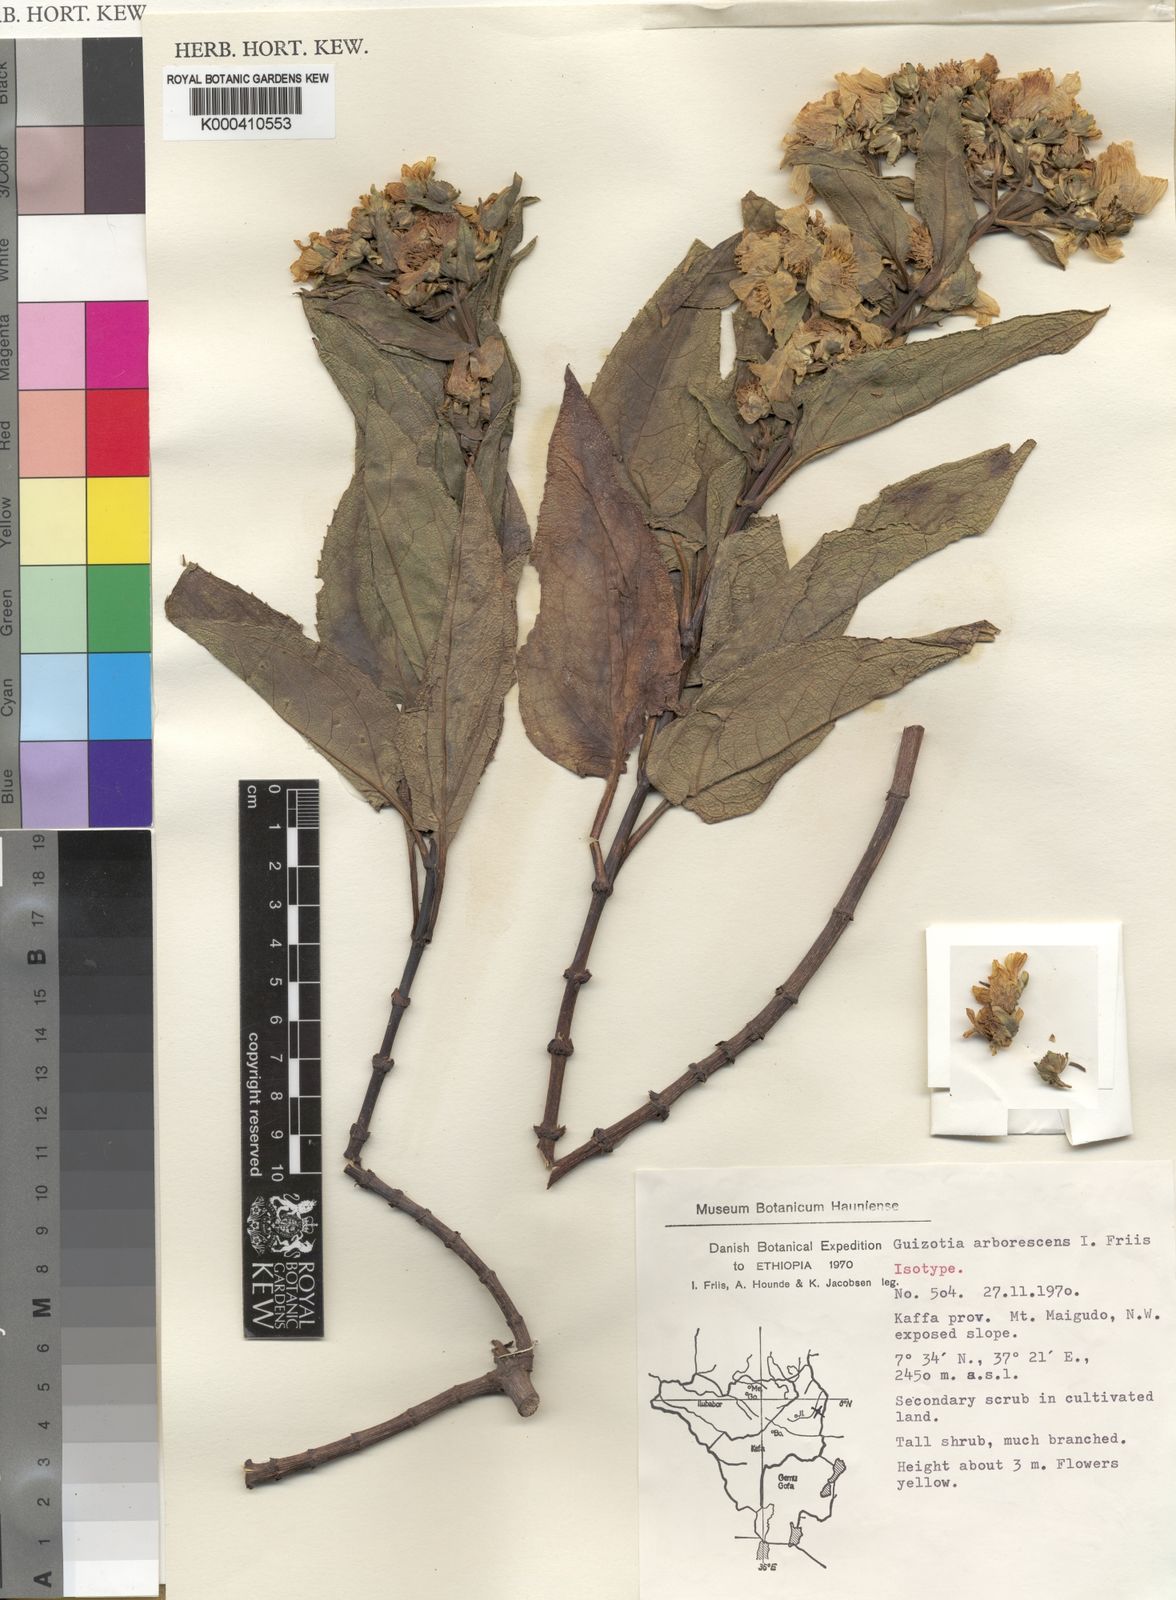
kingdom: Plantae
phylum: Tracheophyta
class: Magnoliopsida
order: Asterales
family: Asteraceae
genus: Guizotia
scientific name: Guizotia arborescens
